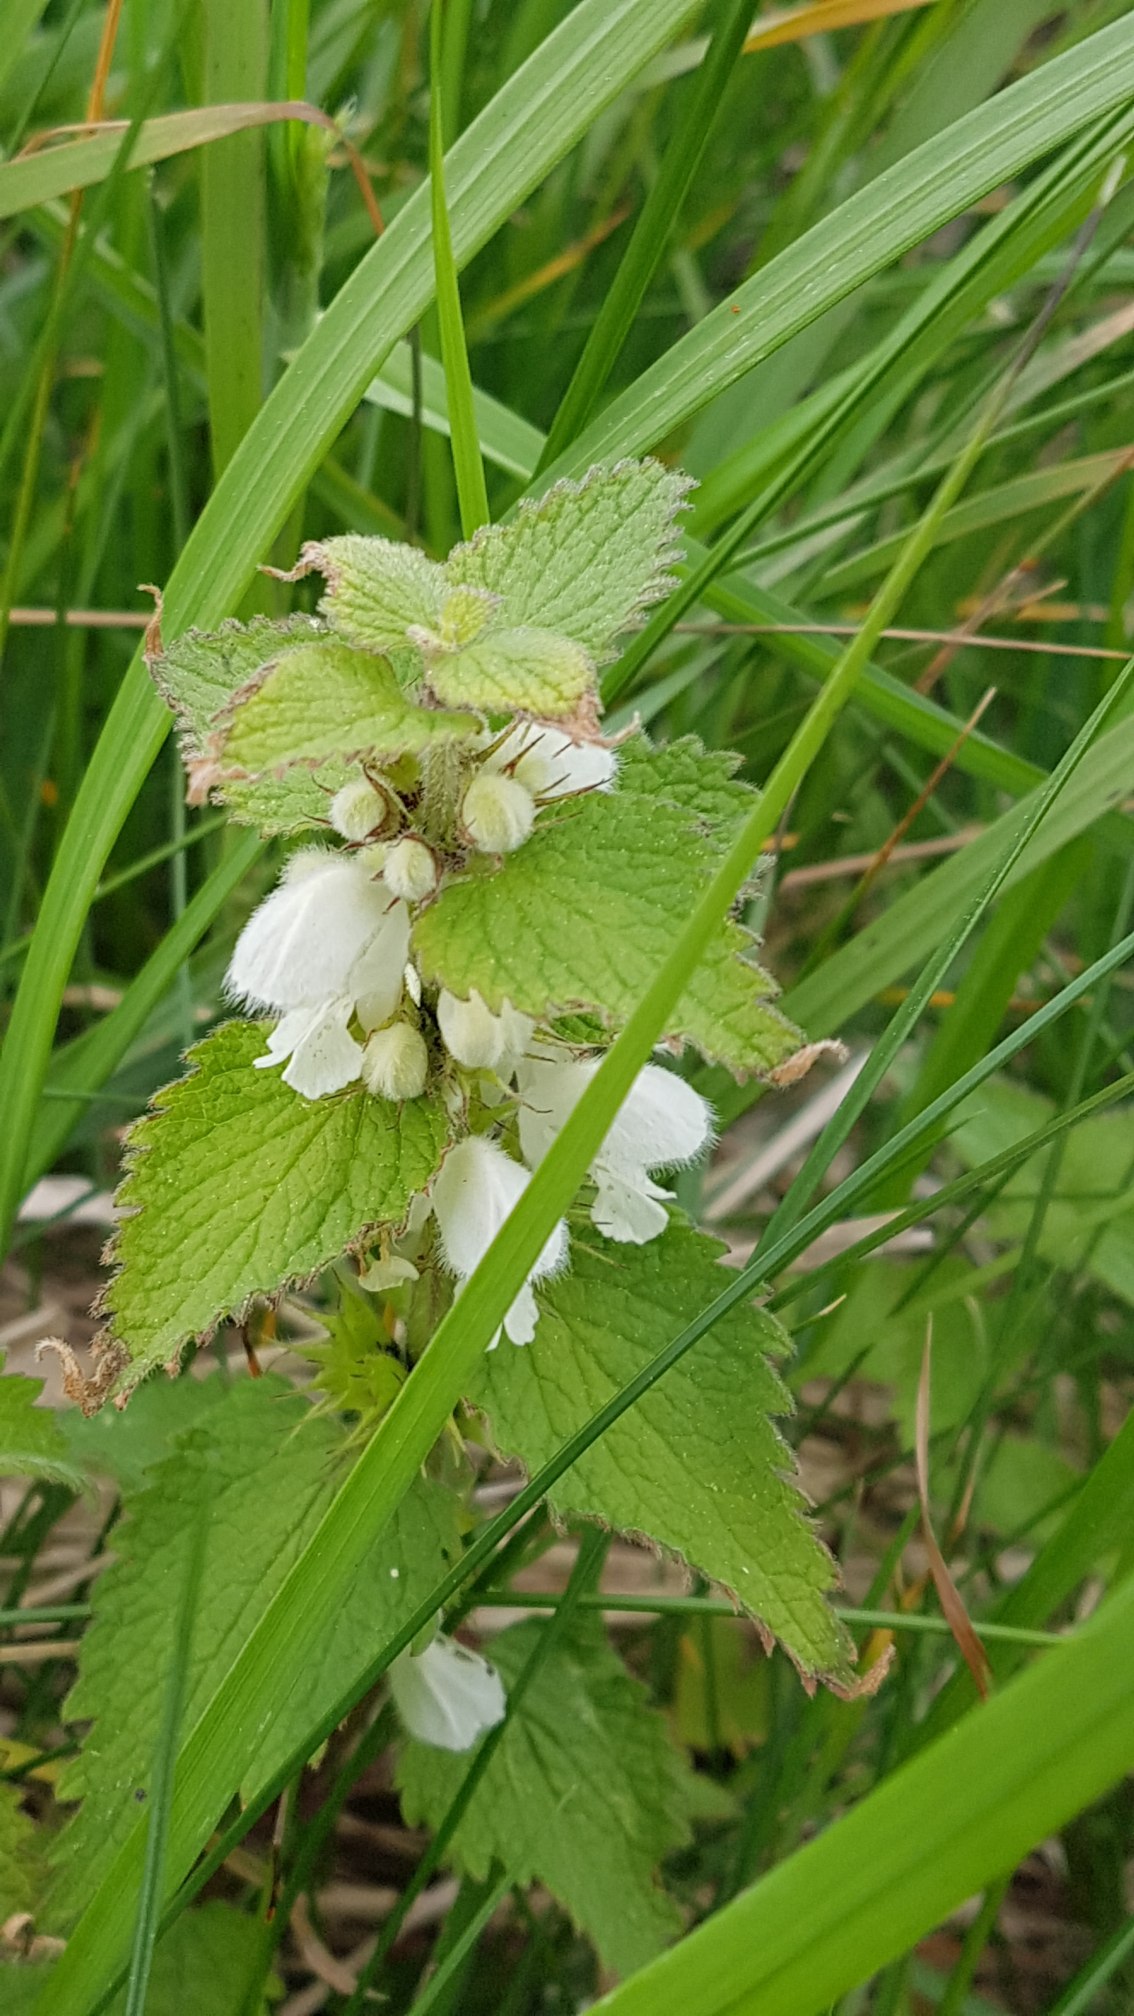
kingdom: Plantae
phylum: Tracheophyta
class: Magnoliopsida
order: Lamiales
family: Lamiaceae
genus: Lamium
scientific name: Lamium album
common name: Døvnælde
